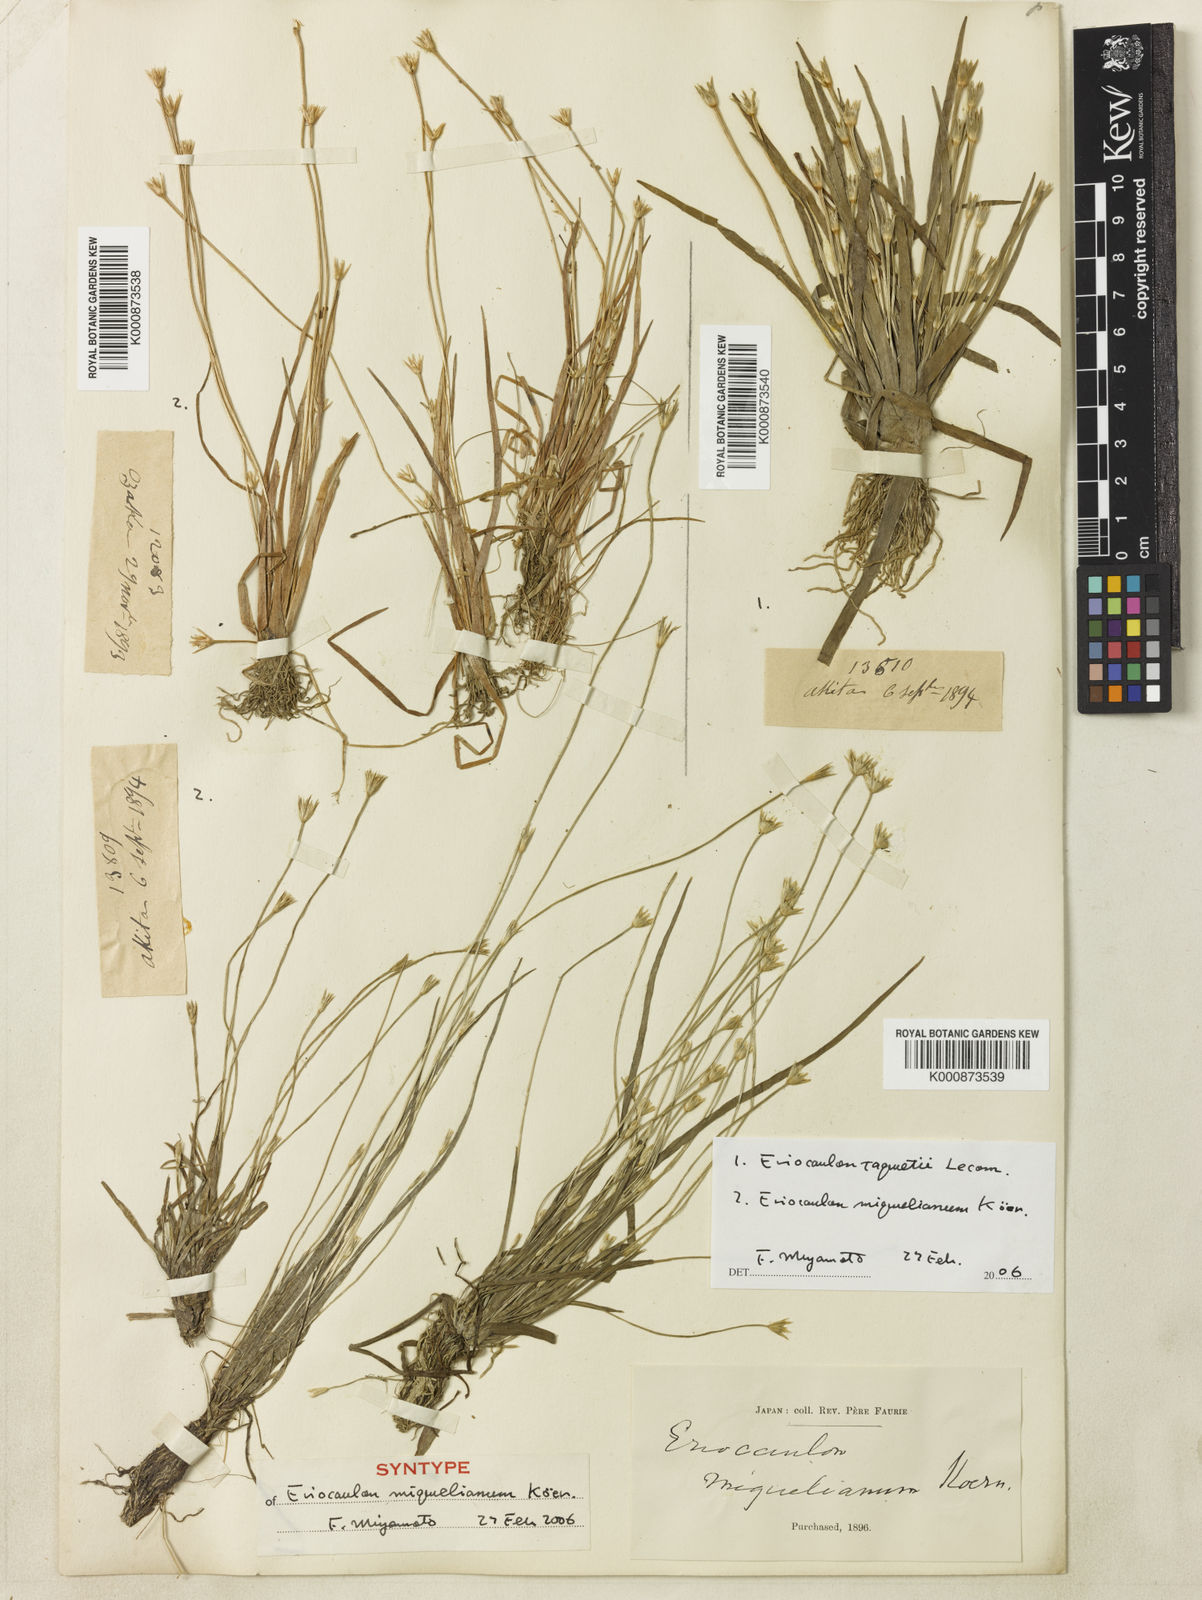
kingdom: Plantae
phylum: Tracheophyta
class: Liliopsida
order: Poales
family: Eriocaulaceae
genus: Eriocaulon
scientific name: Eriocaulon
